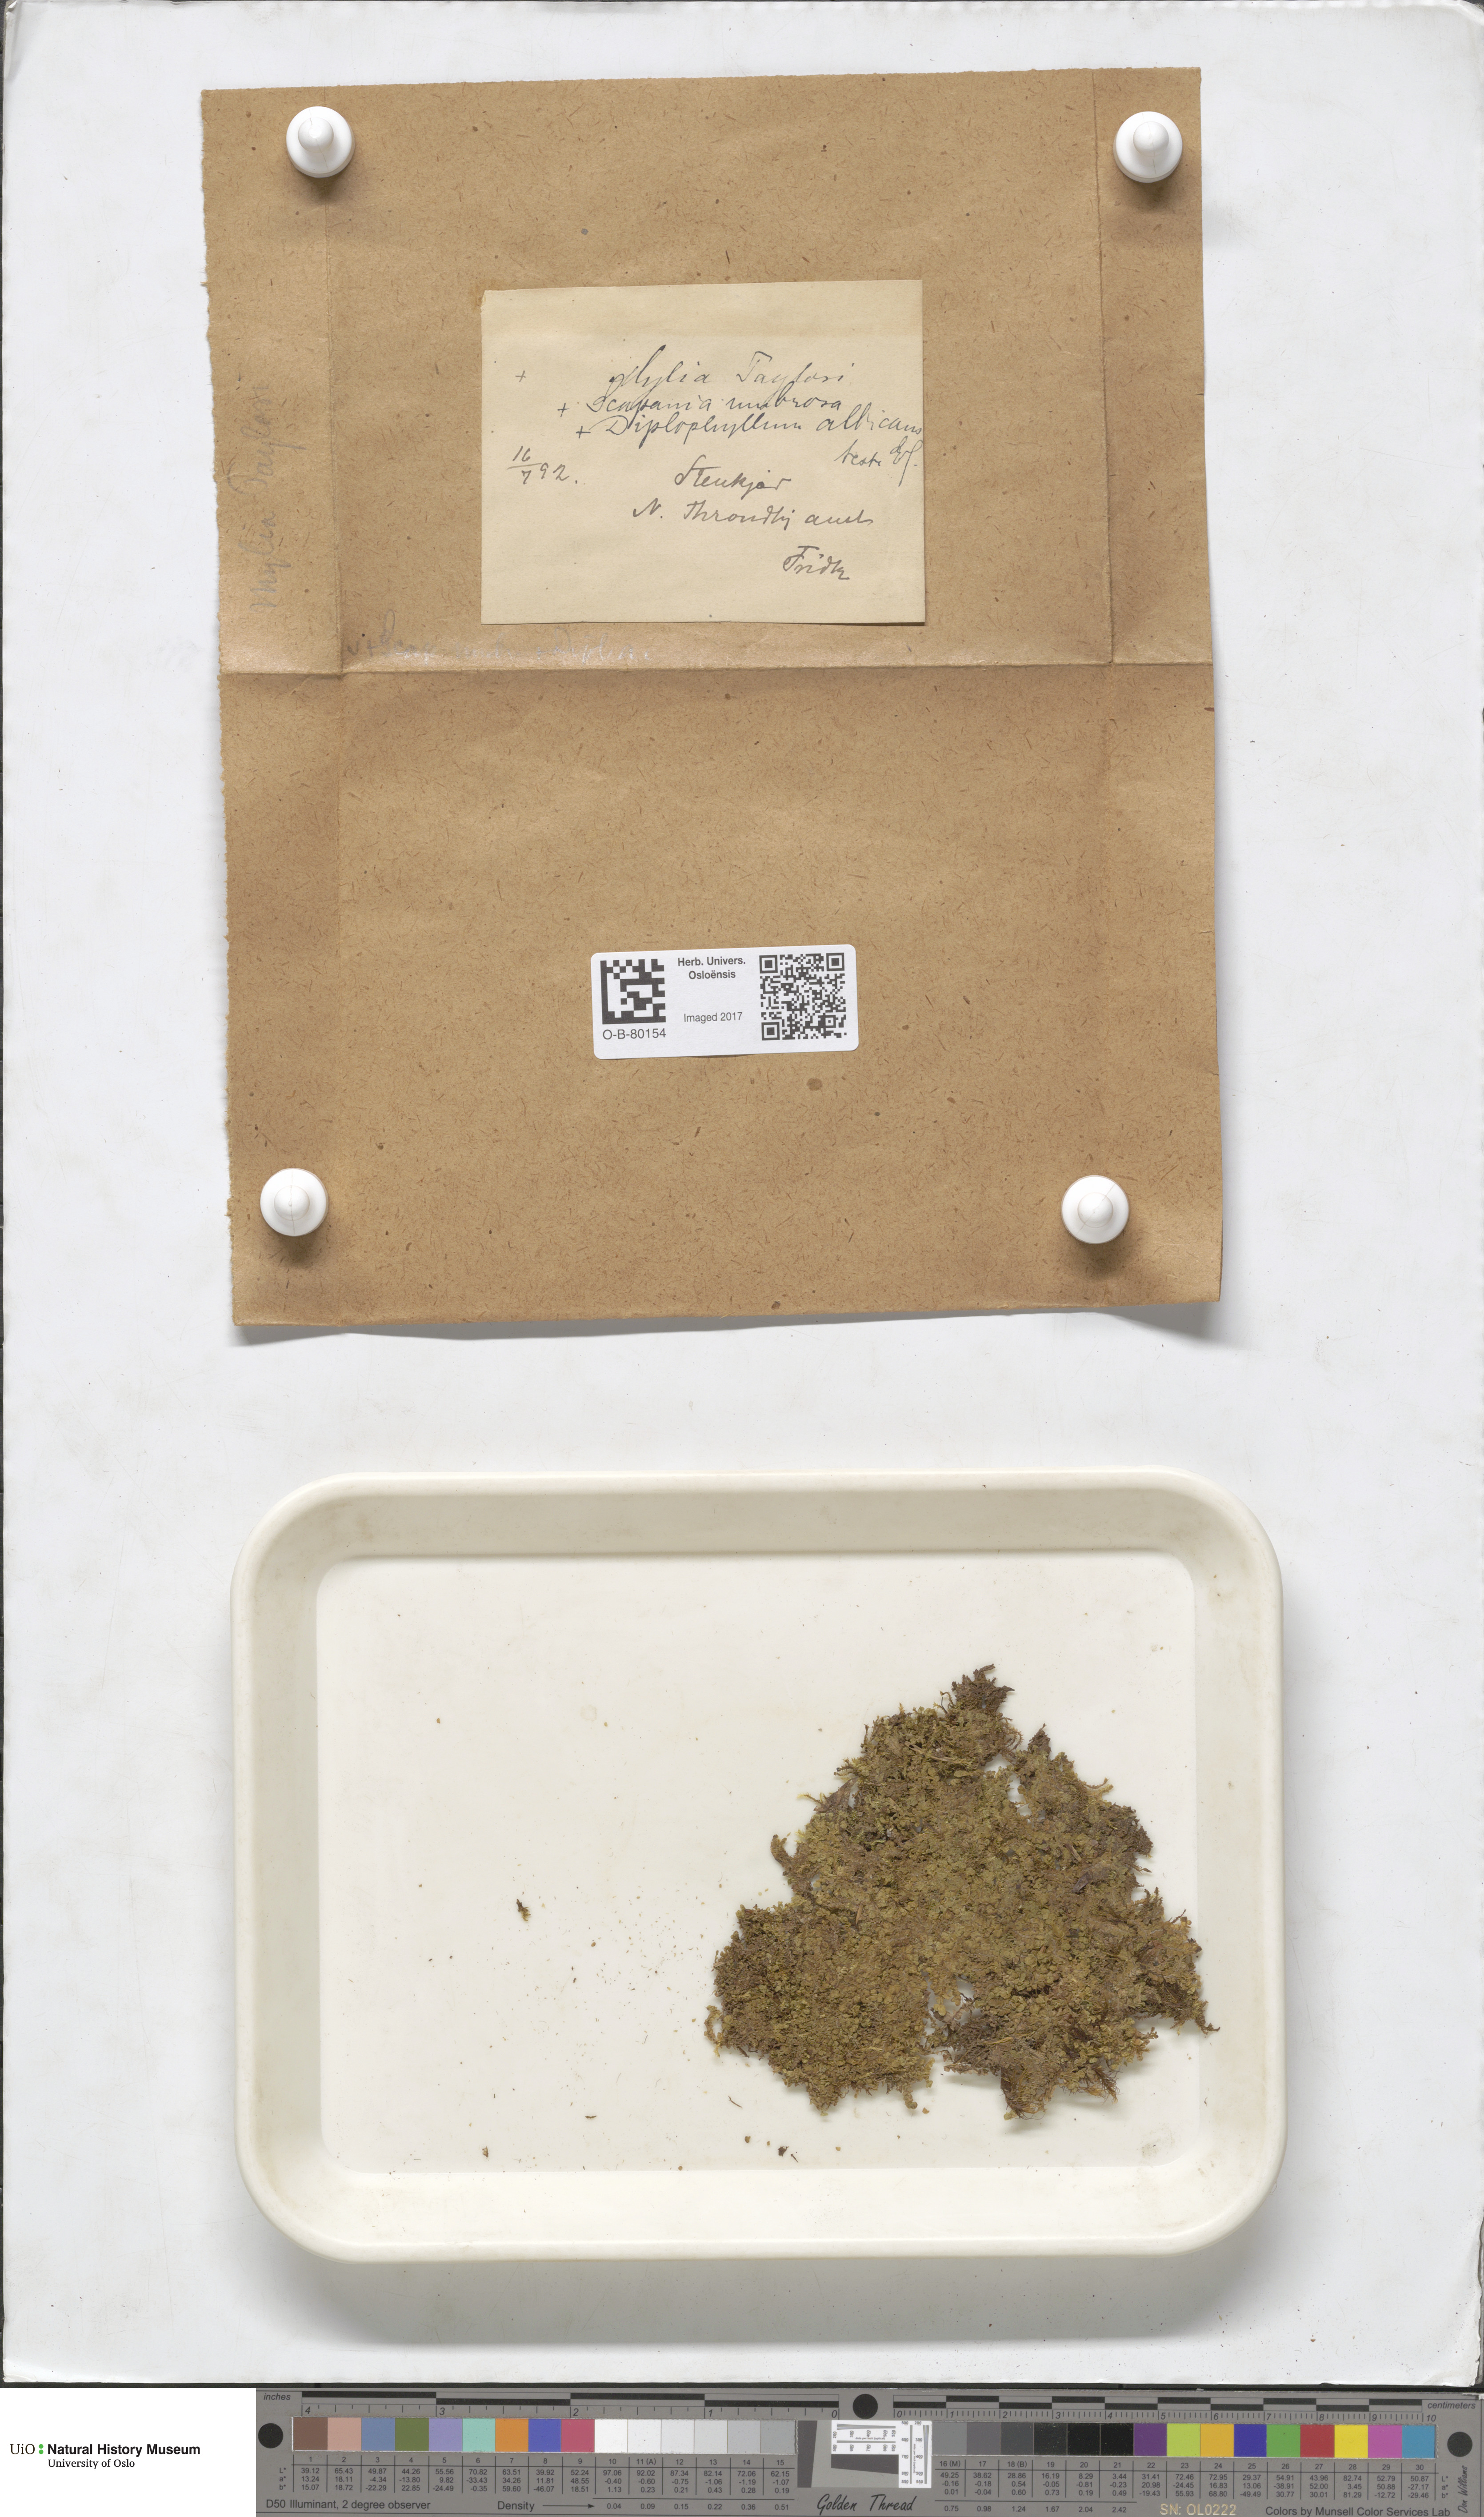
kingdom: Plantae
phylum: Marchantiophyta
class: Jungermanniopsida
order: Jungermanniales
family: Myliaceae
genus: Mylia
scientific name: Mylia taylorii
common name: Taylor s flapwort
